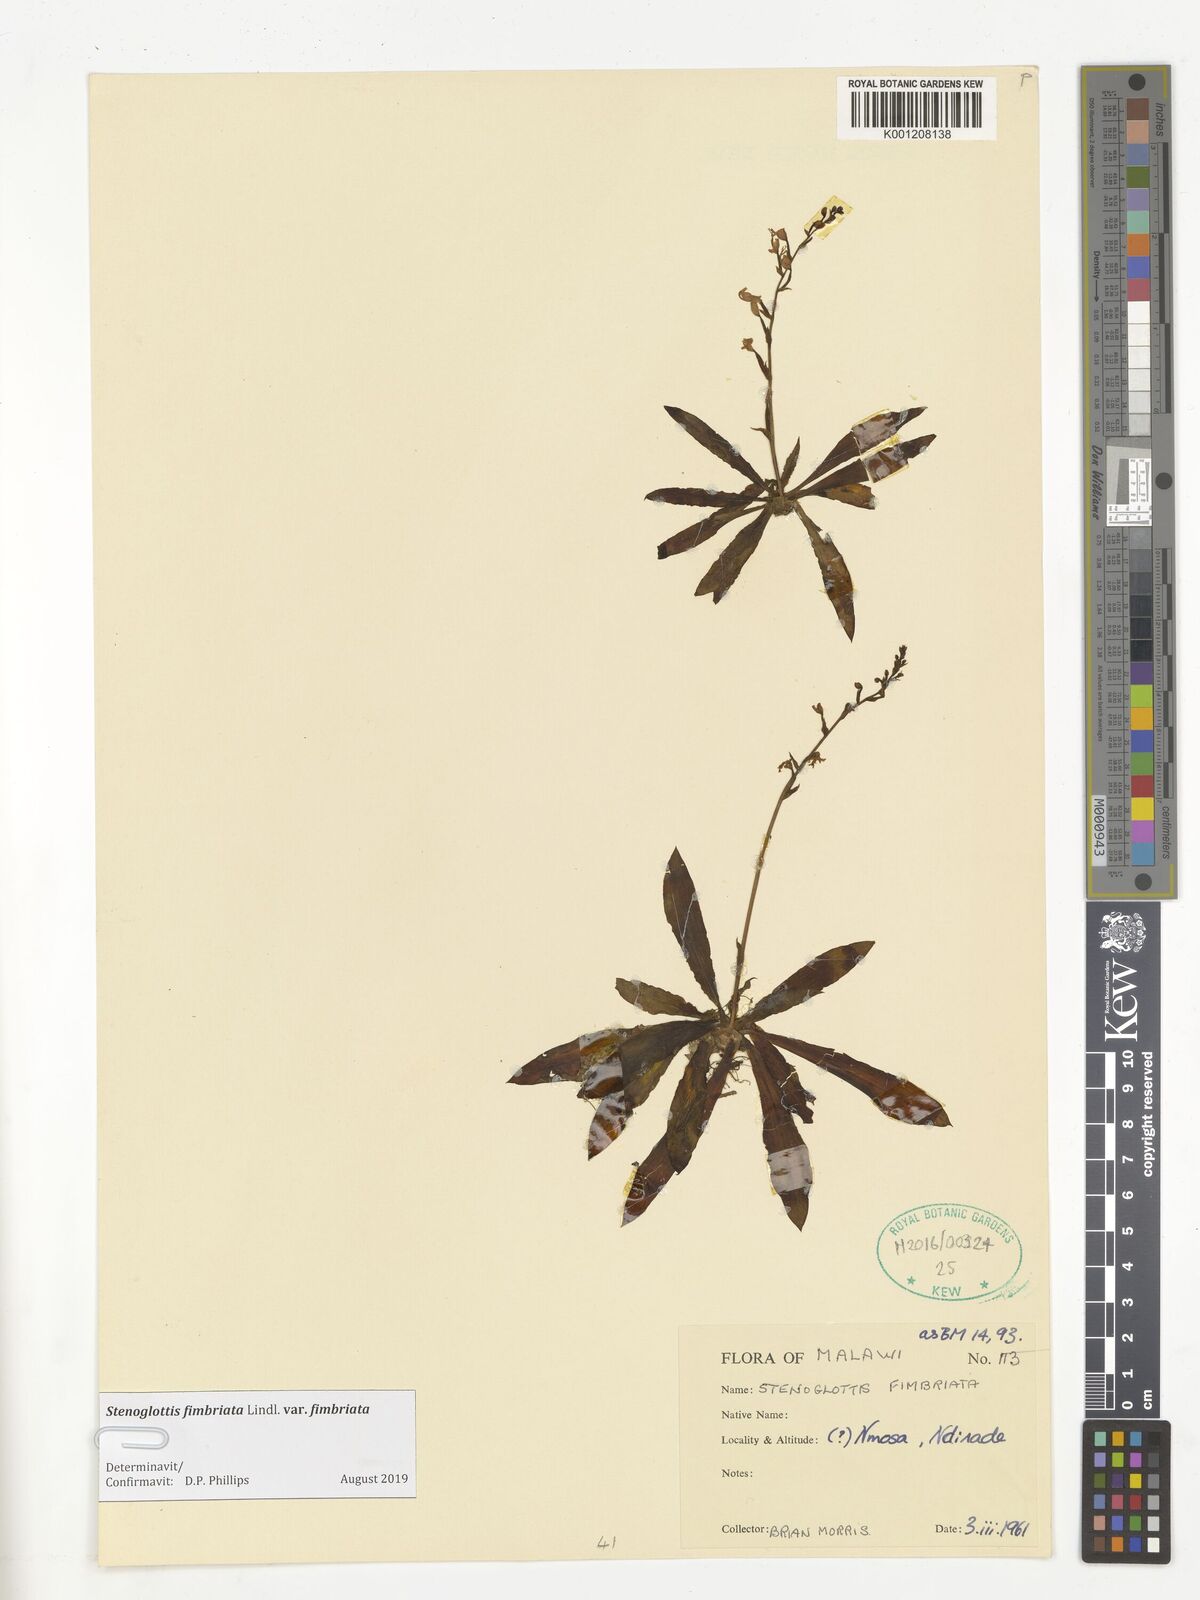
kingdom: Plantae
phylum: Tracheophyta
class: Liliopsida
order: Asparagales
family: Orchidaceae
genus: Stenoglottis
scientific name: Stenoglottis fimbriata
